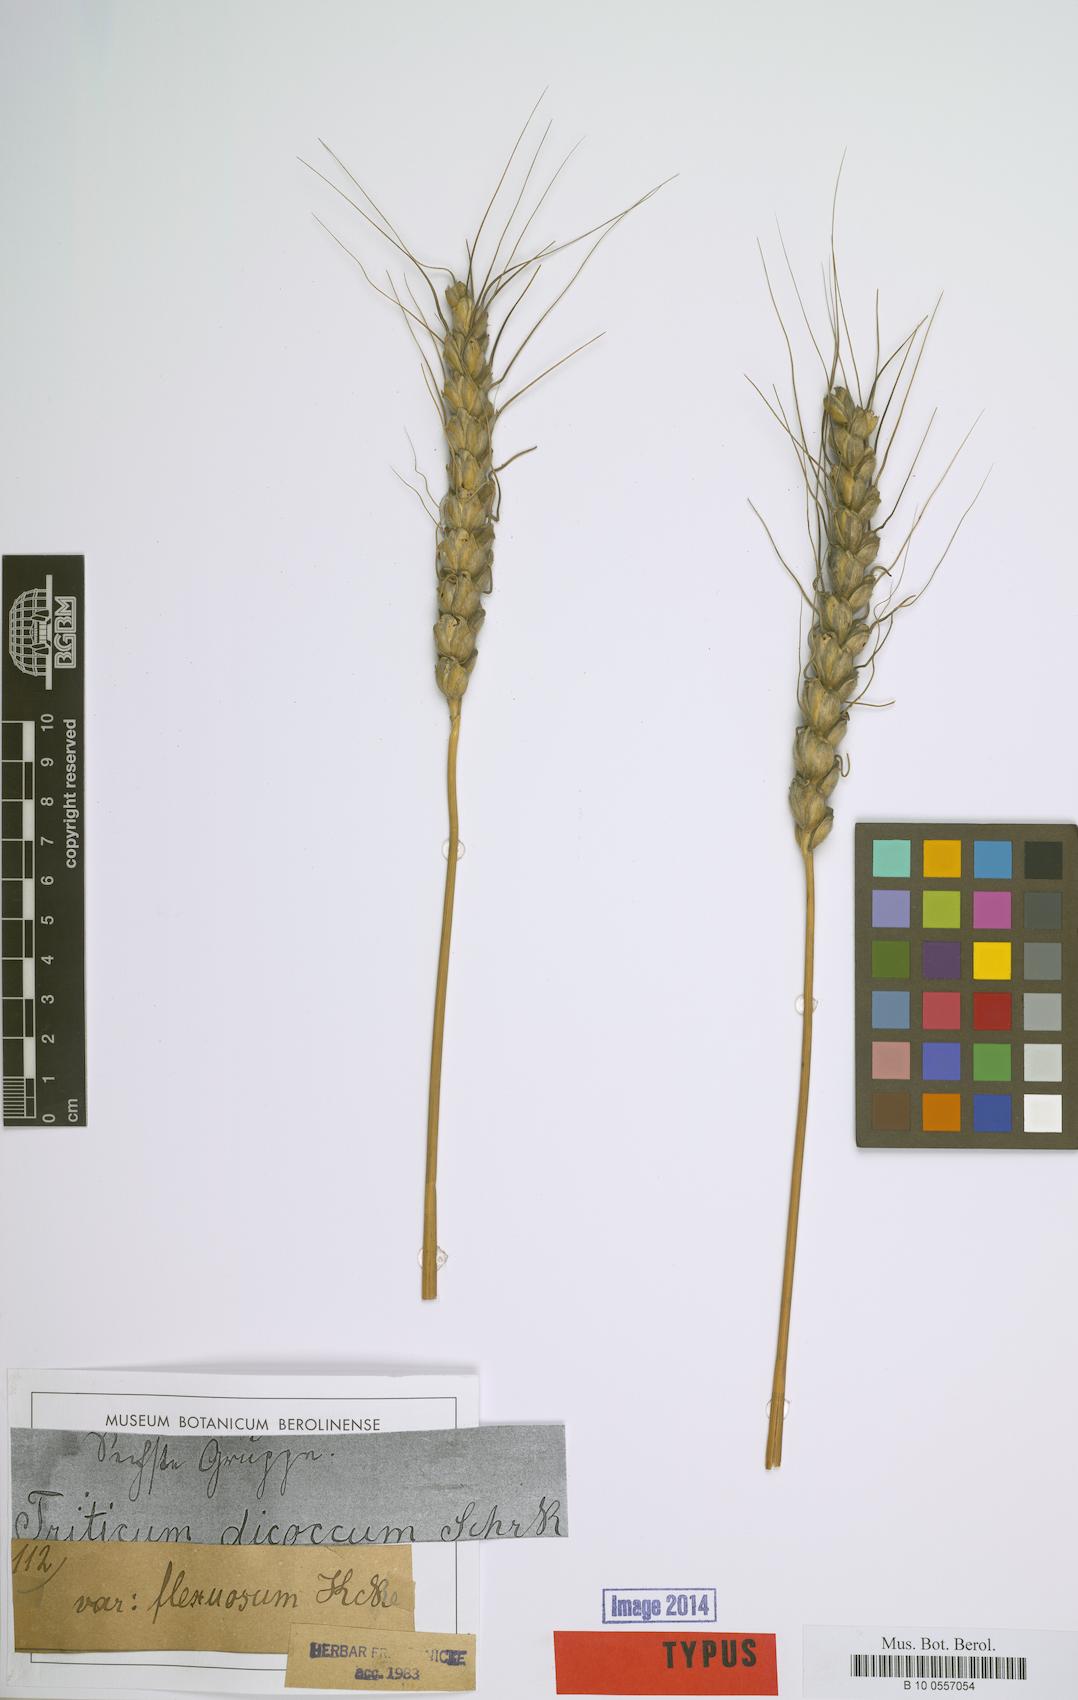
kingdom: Plantae
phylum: Tracheophyta
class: Liliopsida
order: Poales
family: Poaceae
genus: Triticum
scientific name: Triticum turgidum
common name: Rivet wheat
